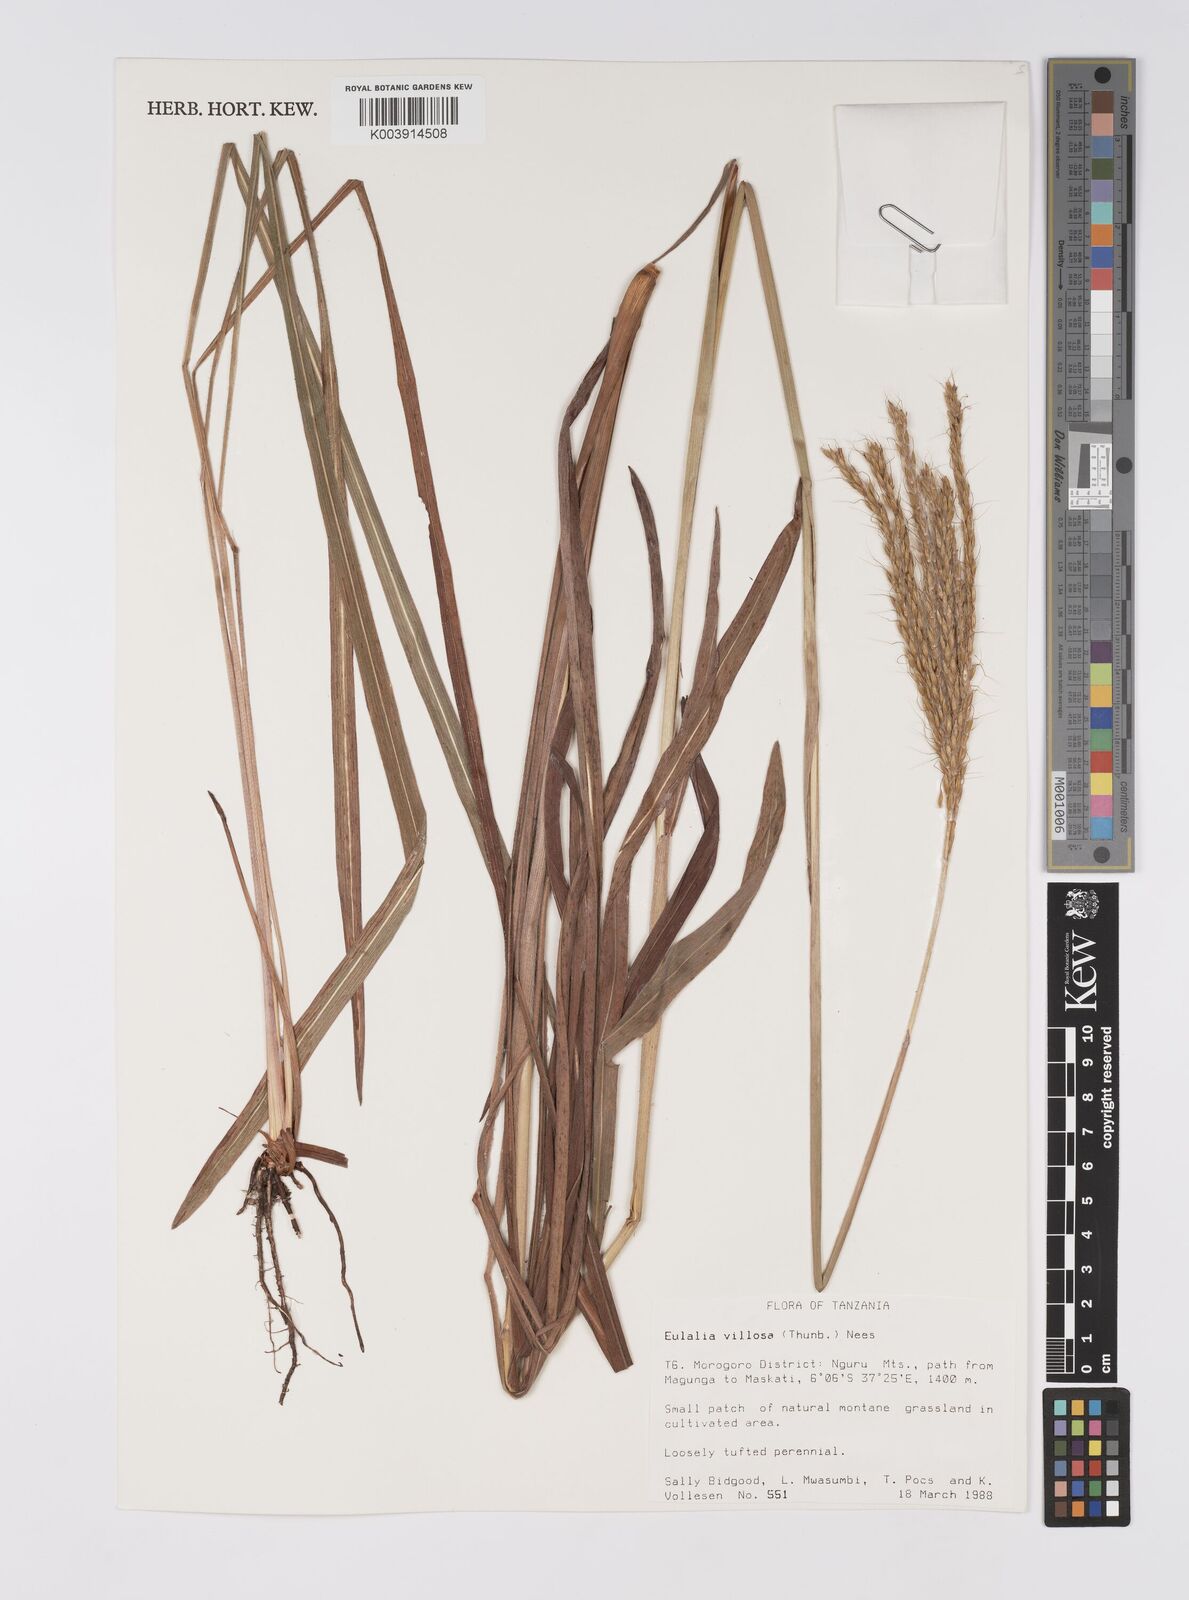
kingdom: Plantae
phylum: Tracheophyta
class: Liliopsida
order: Poales
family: Poaceae
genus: Eulalia
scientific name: Eulalia villosa
